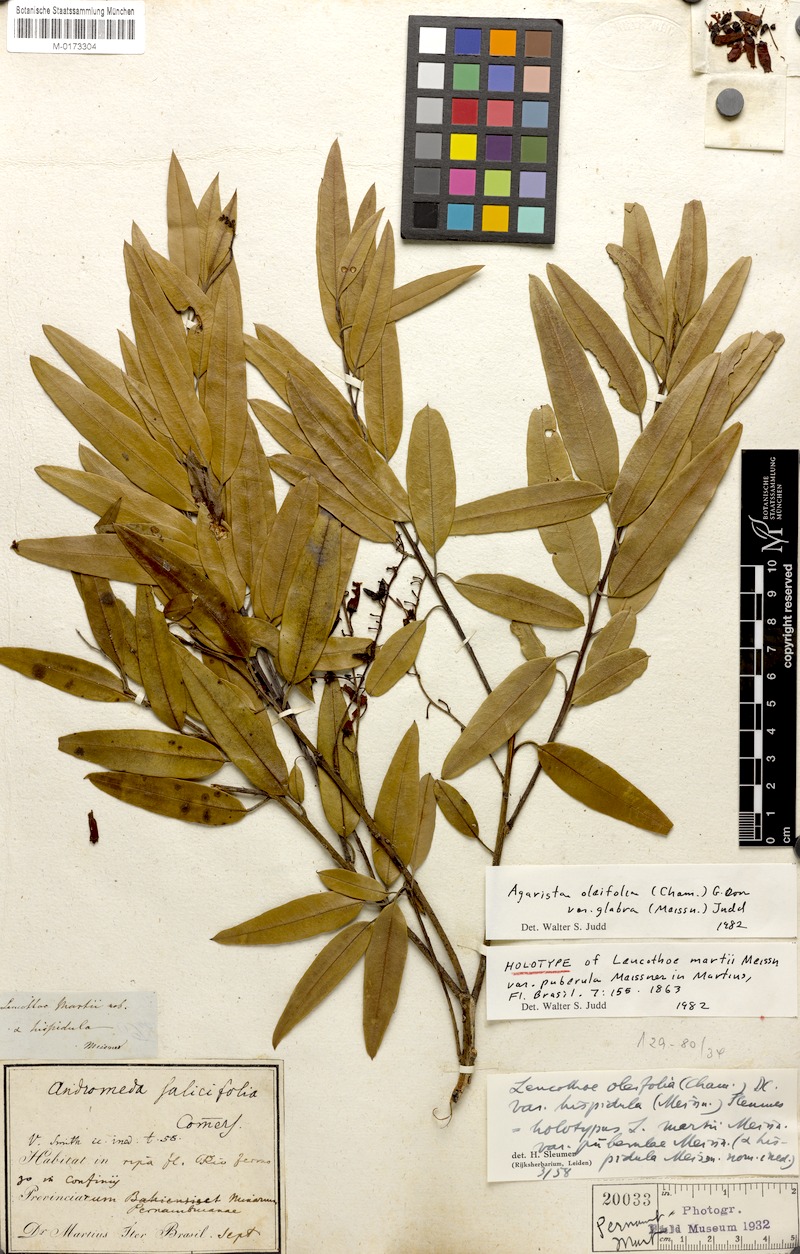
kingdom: Plantae
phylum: Tracheophyta
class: Magnoliopsida
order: Ericales
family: Ericaceae
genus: Agarista
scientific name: Agarista oleifolia
